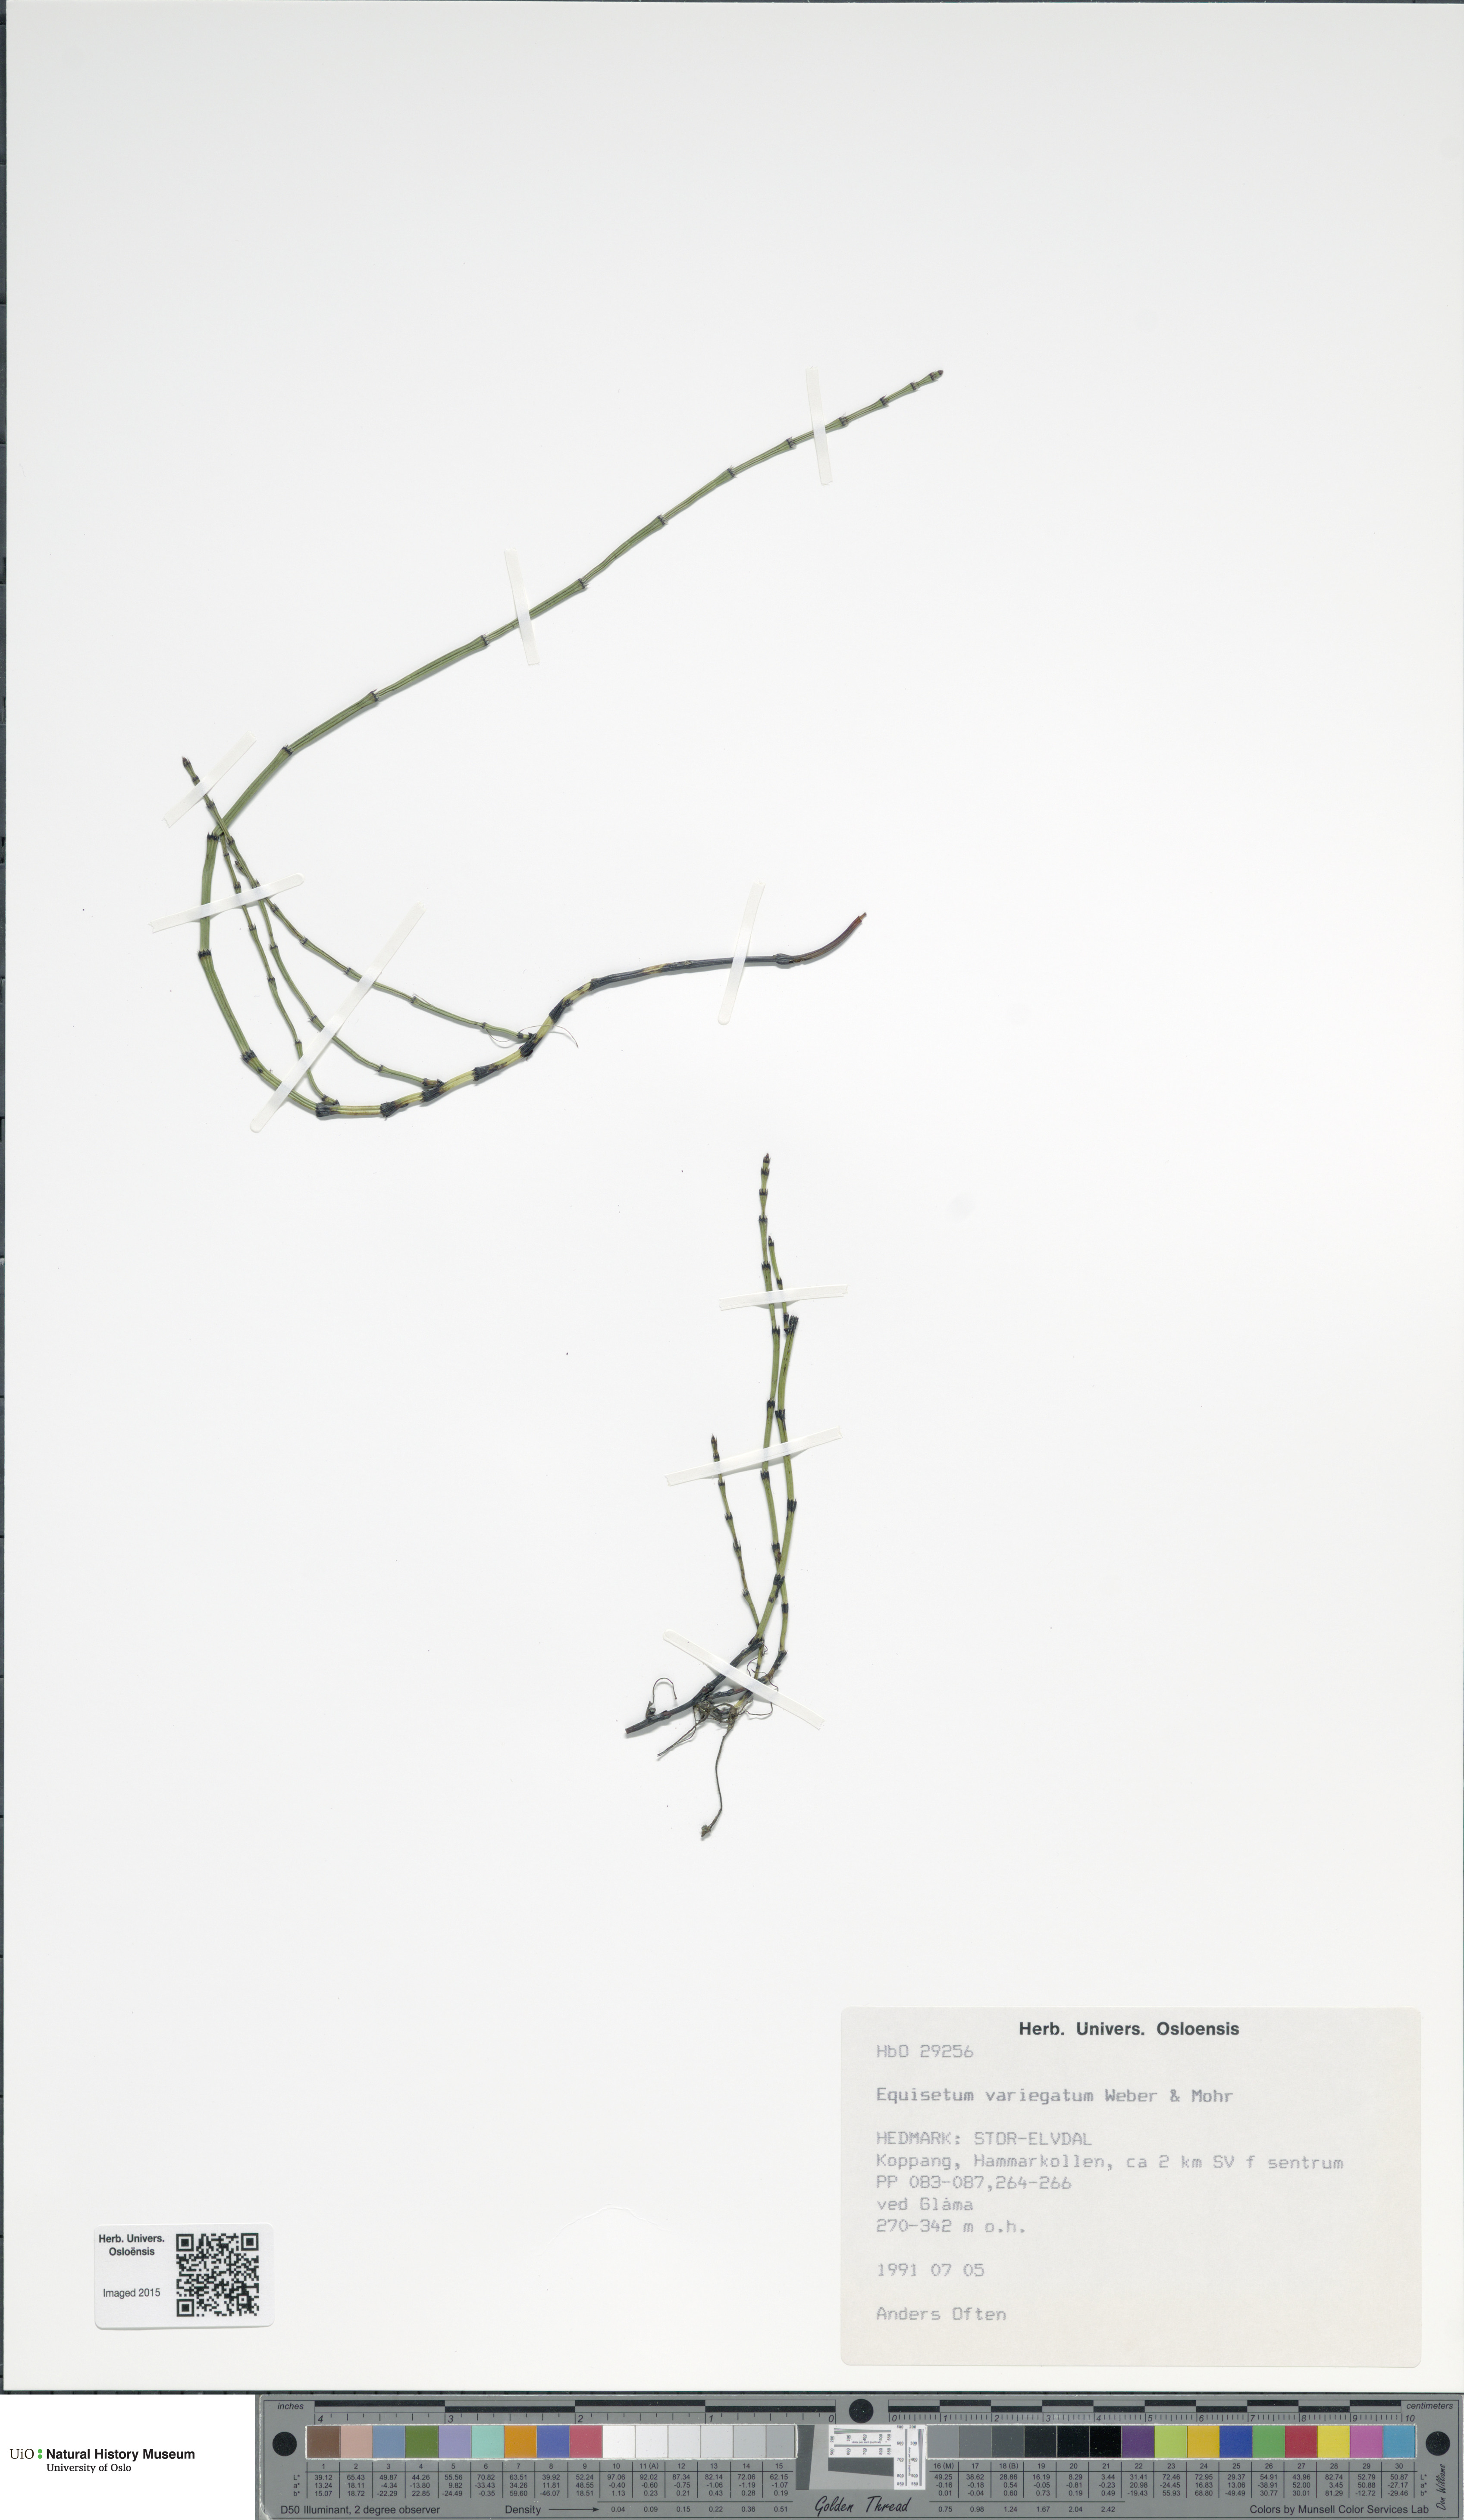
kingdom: Plantae
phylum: Tracheophyta
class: Polypodiopsida
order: Equisetales
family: Equisetaceae
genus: Equisetum
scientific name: Equisetum variegatum
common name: Variegated horsetail
